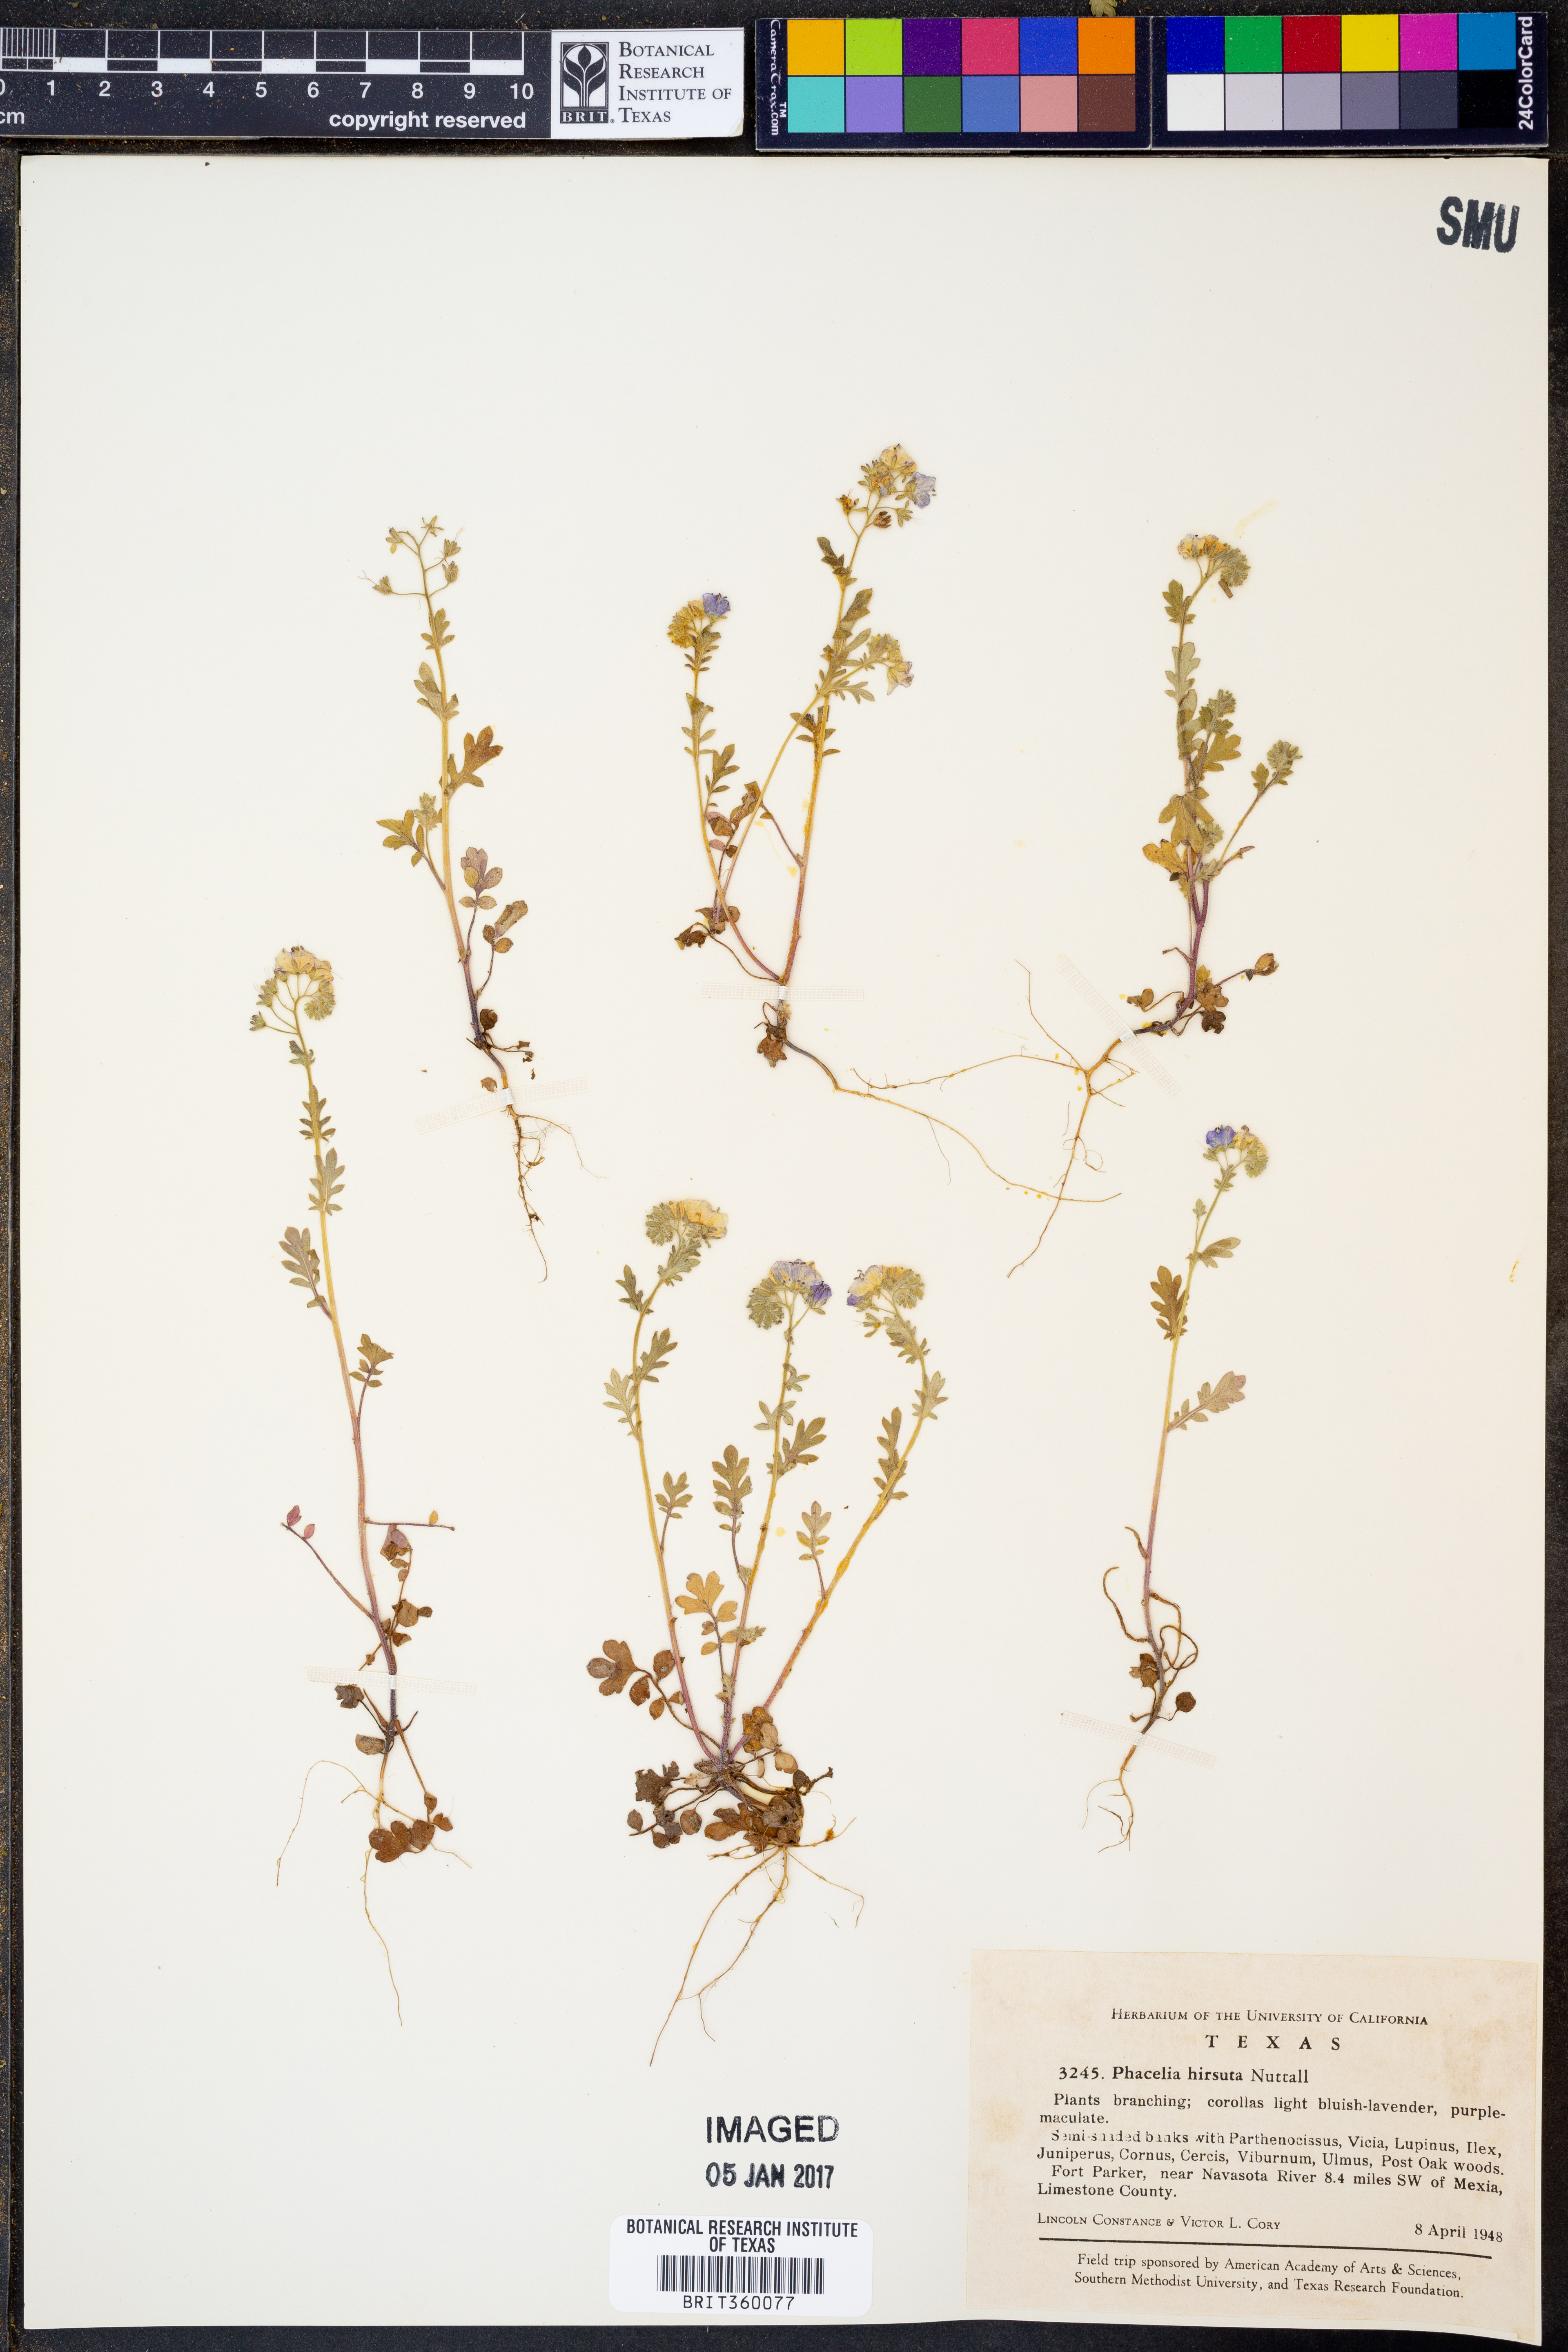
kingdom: Plantae
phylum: Tracheophyta
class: Magnoliopsida
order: Boraginales
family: Hydrophyllaceae
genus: Phacelia
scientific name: Phacelia hirsuta
